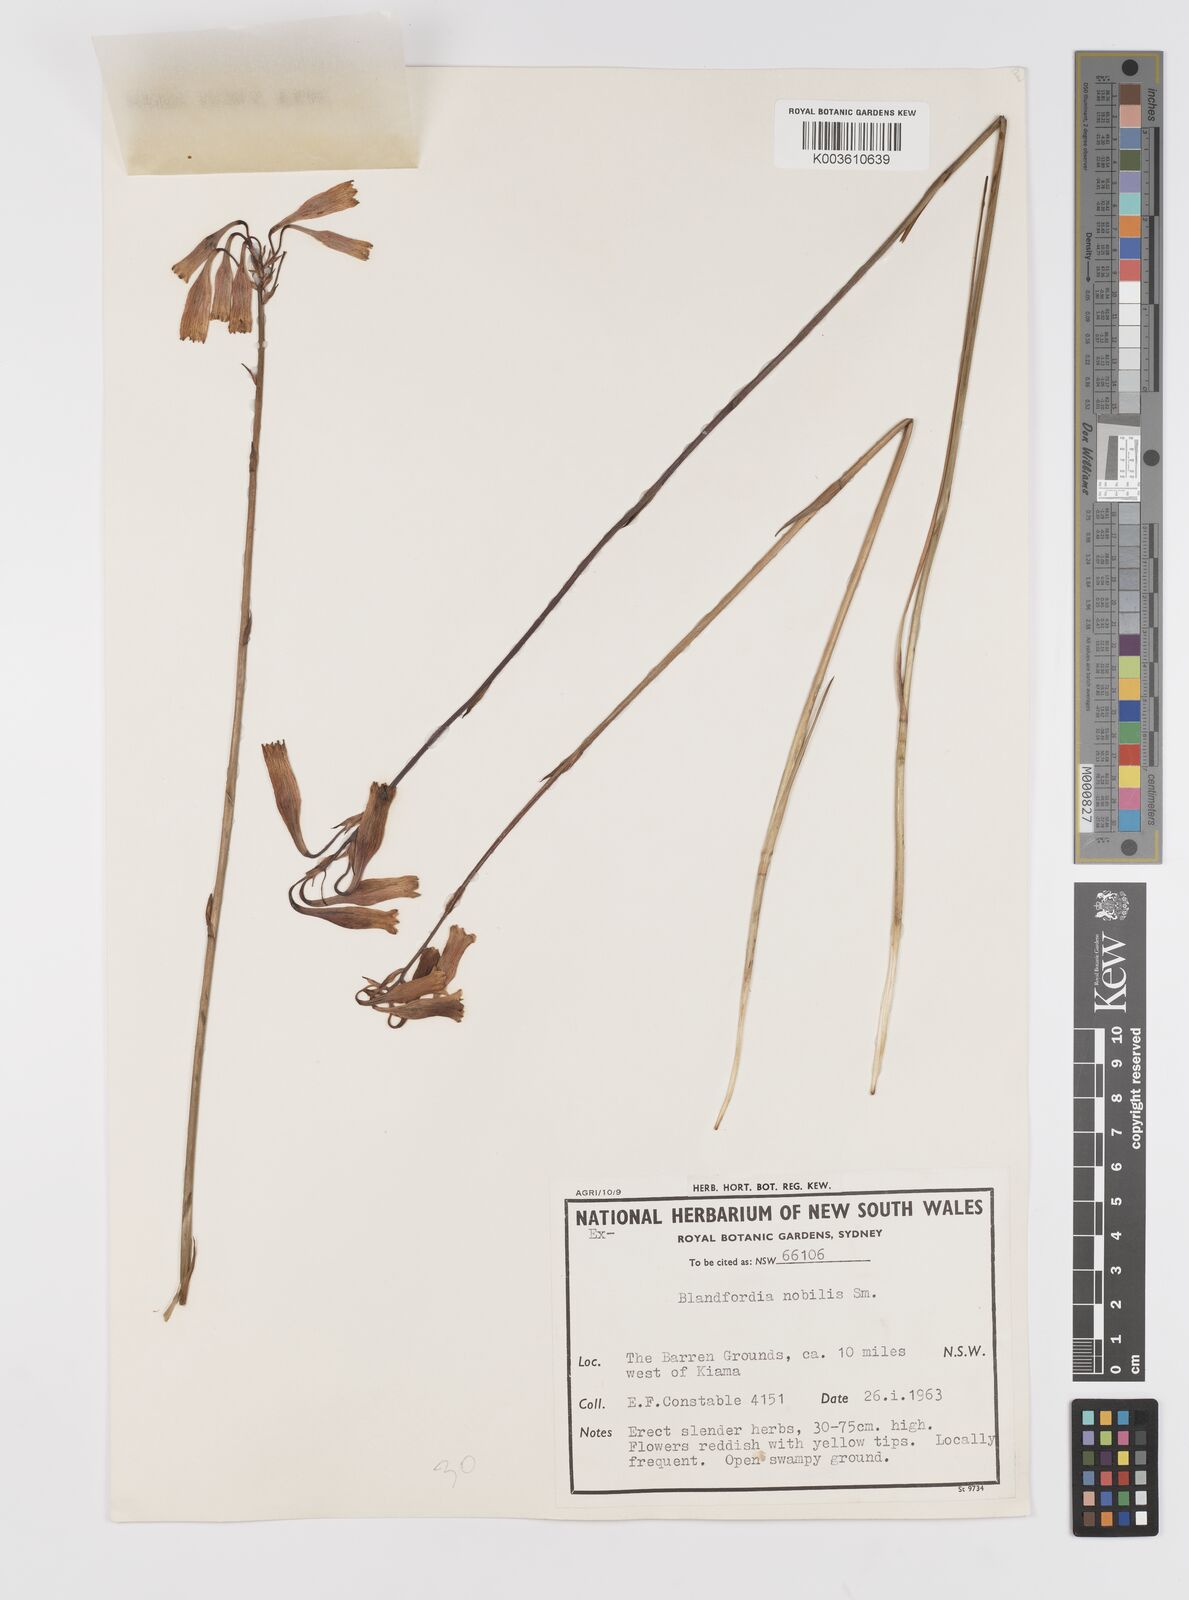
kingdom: Plantae
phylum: Tracheophyta
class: Liliopsida
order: Asparagales
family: Blandfordiaceae
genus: Blandfordia
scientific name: Blandfordia nobilis
